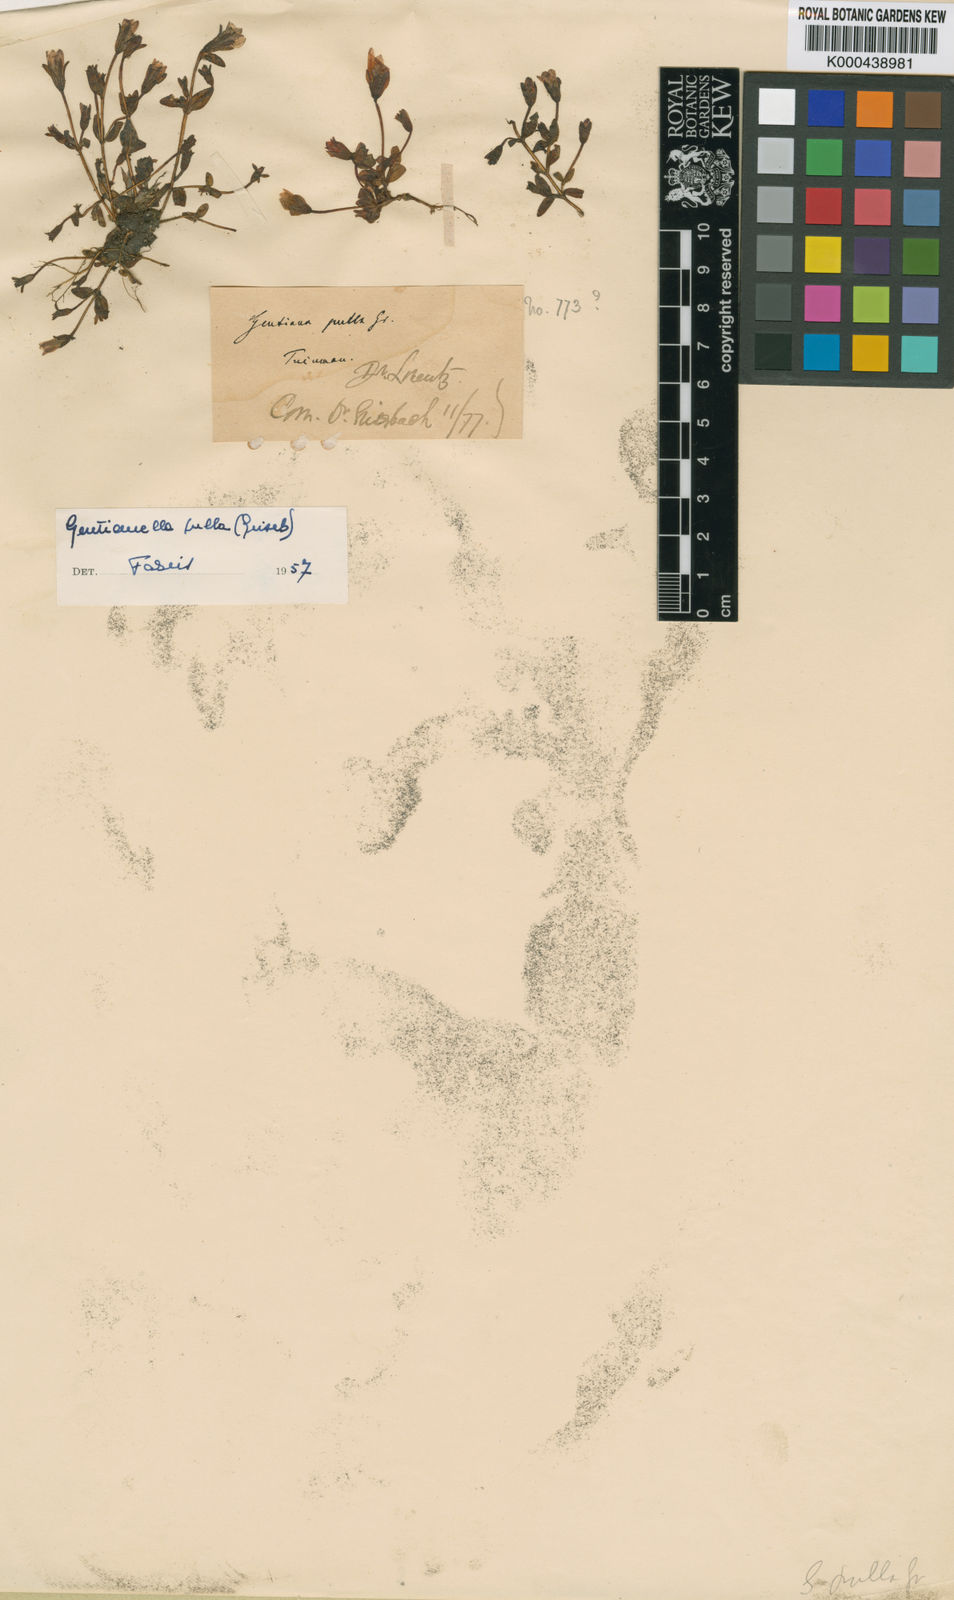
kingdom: Plantae
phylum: Tracheophyta
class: Magnoliopsida
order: Gentianales
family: Gentianaceae
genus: Gentianella
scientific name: Gentianella pulla
